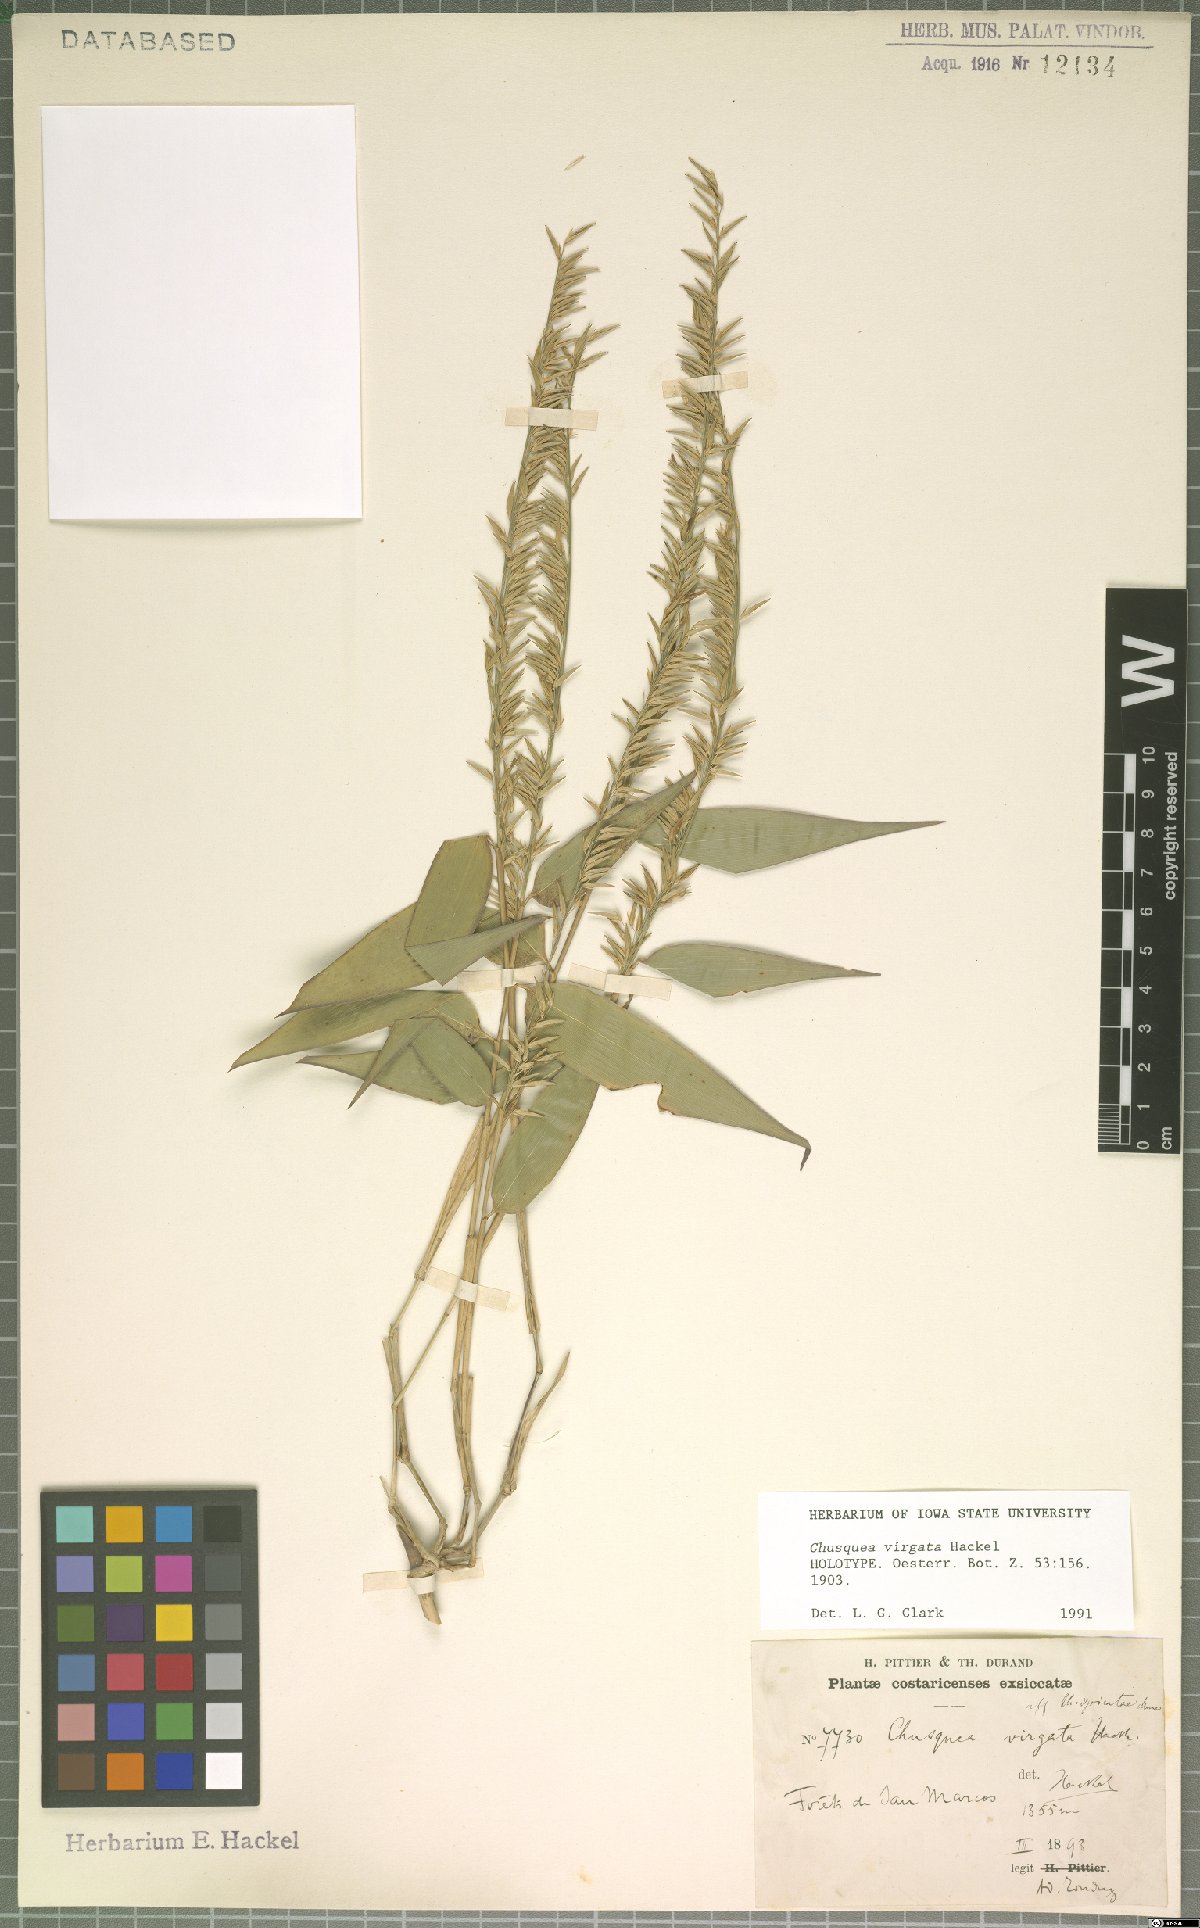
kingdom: Plantae
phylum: Tracheophyta
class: Liliopsida
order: Poales
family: Poaceae
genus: Chusquea
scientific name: Chusquea virgata
